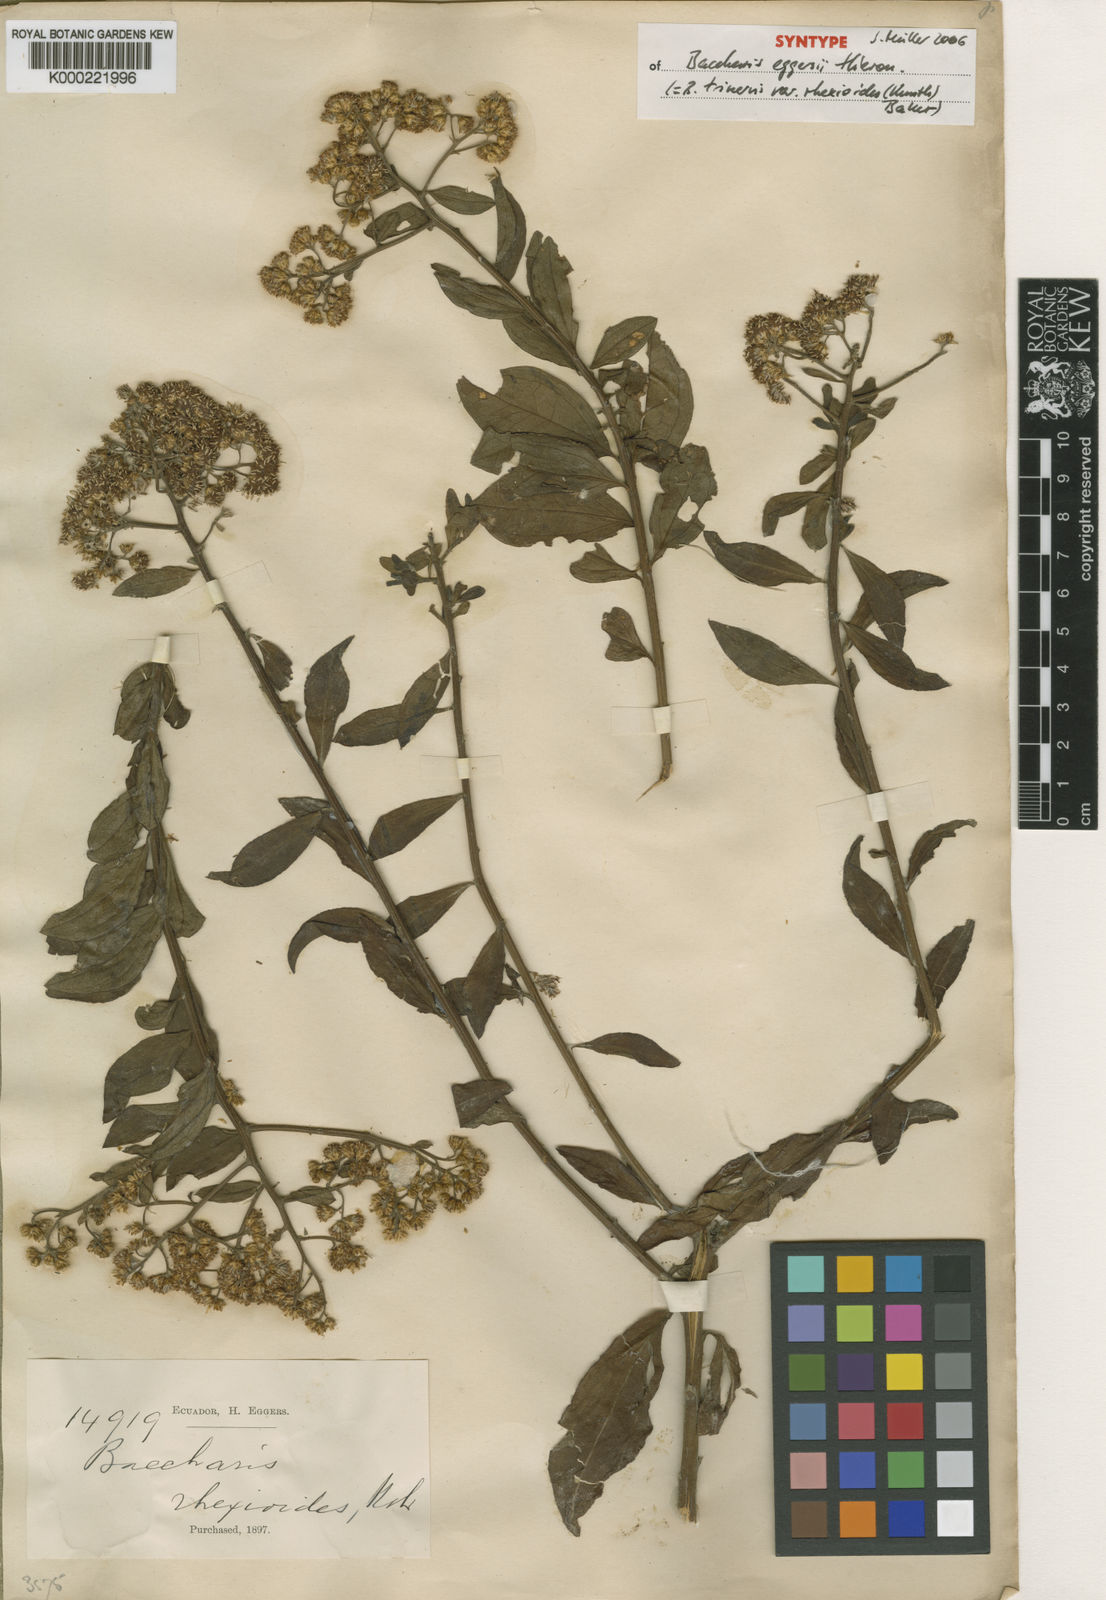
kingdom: Plantae
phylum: Tracheophyta
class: Magnoliopsida
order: Asterales
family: Asteraceae
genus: Baccharis
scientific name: Baccharis trinervis
